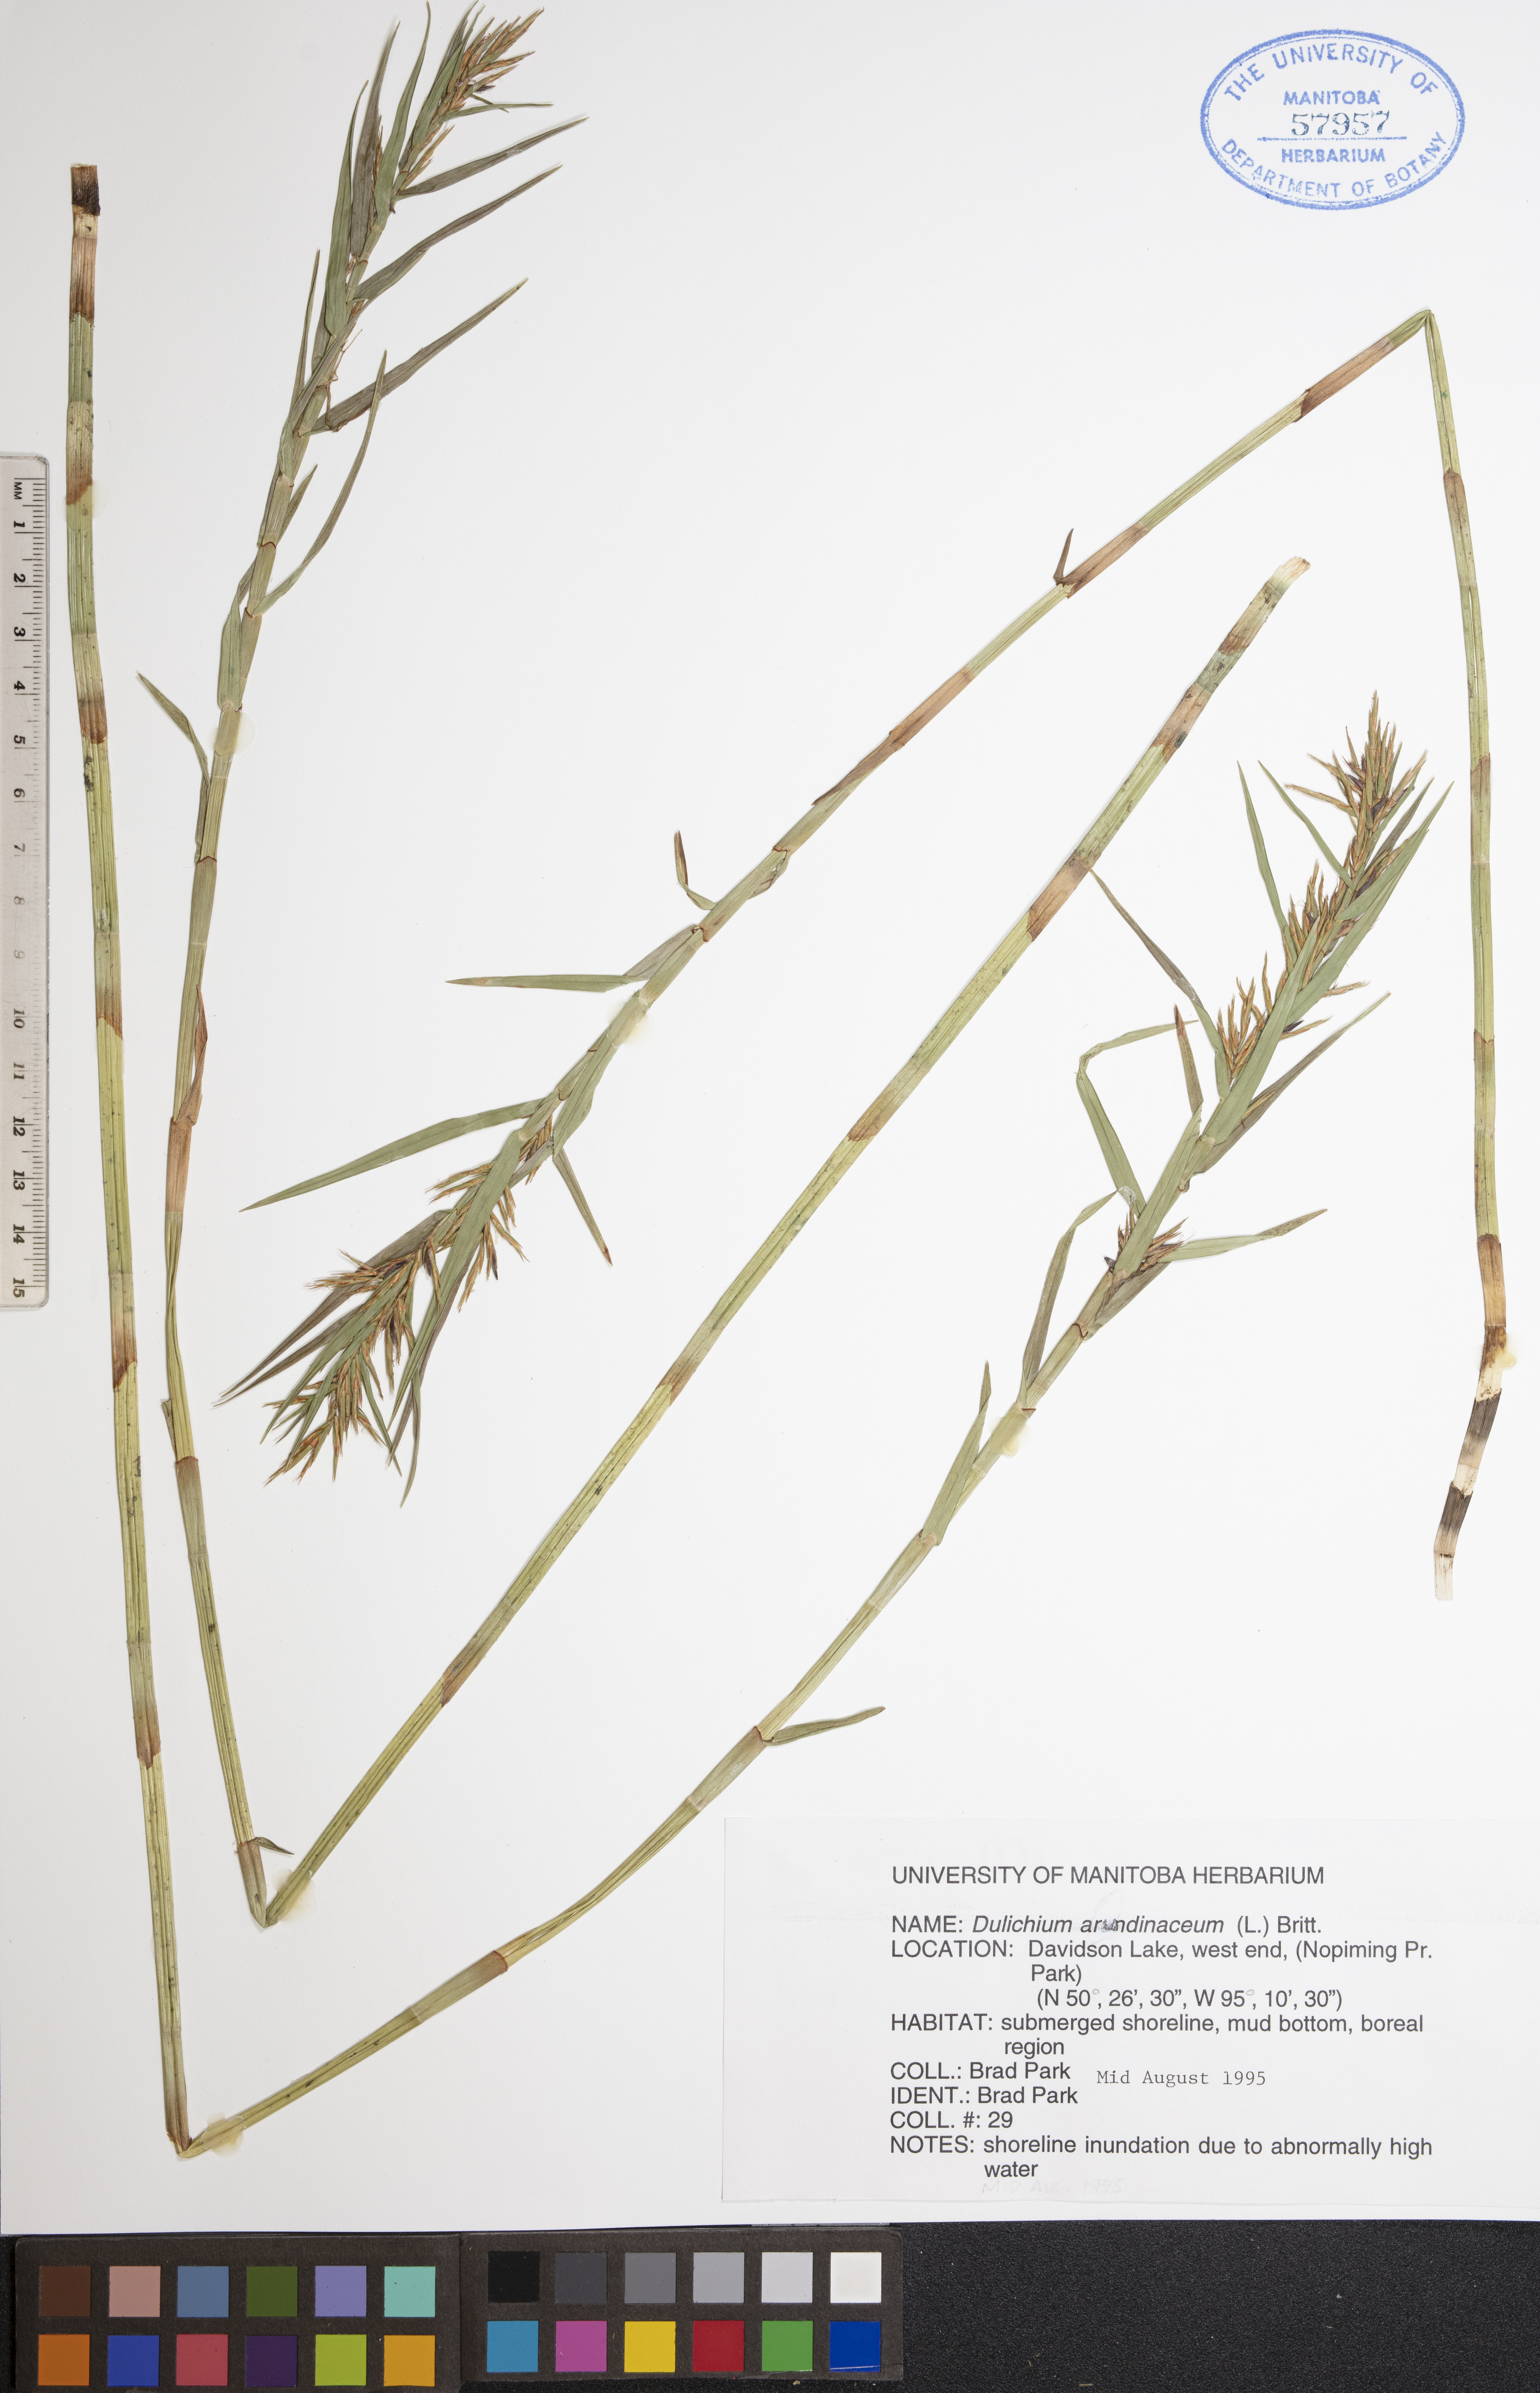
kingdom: Plantae
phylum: Tracheophyta
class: Liliopsida
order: Poales
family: Cyperaceae
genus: Dulichium
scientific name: Dulichium arundinaceum
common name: Three-way sedge
